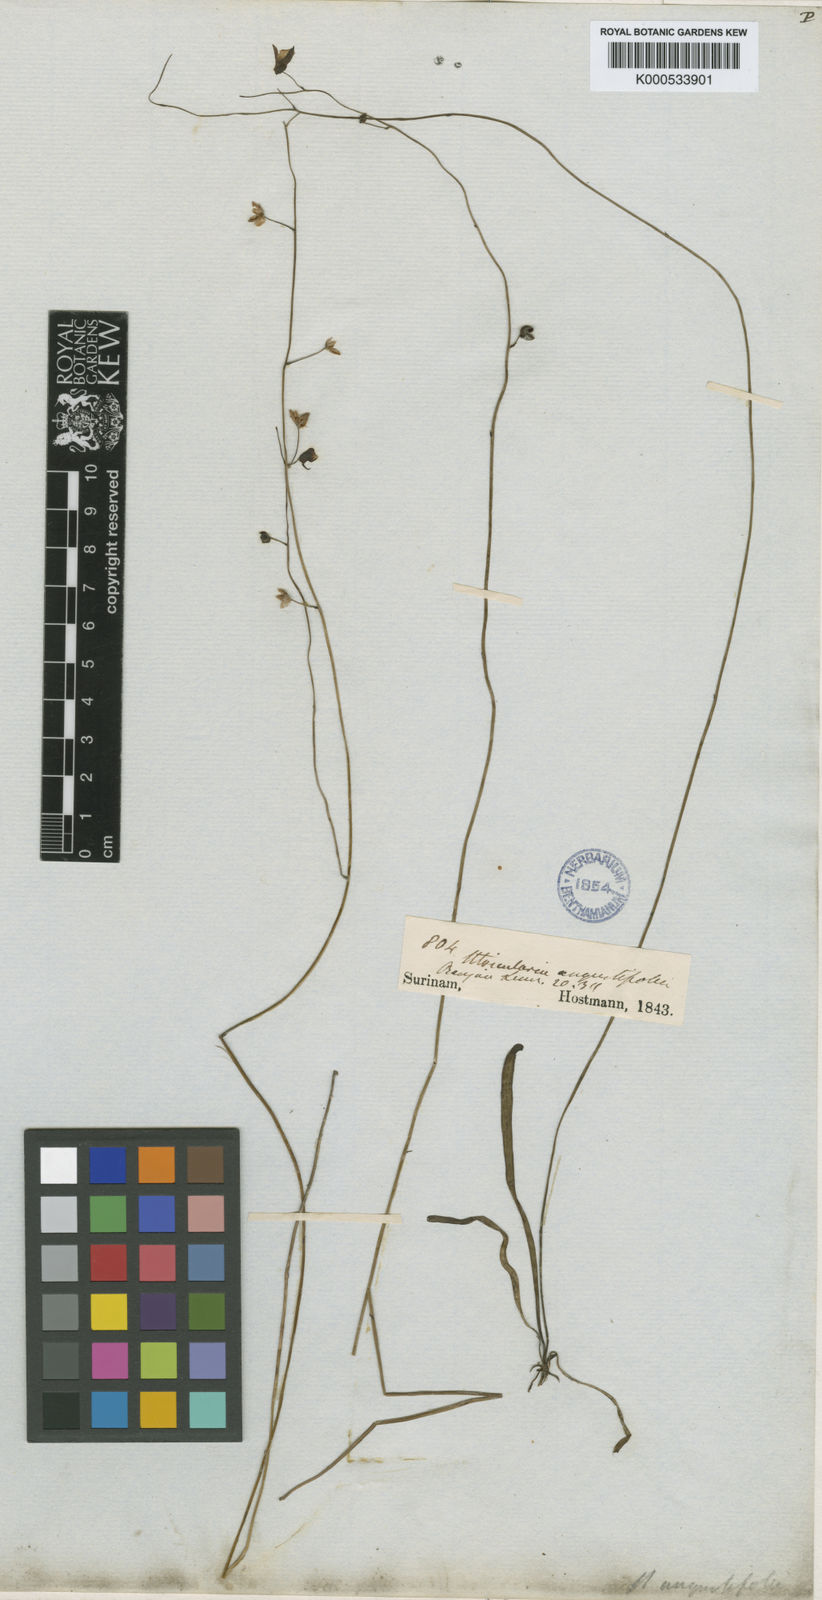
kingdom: Plantae
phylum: Tracheophyta
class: Magnoliopsida
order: Lamiales
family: Lentibulariaceae
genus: Utricularia
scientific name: Utricularia hispida
